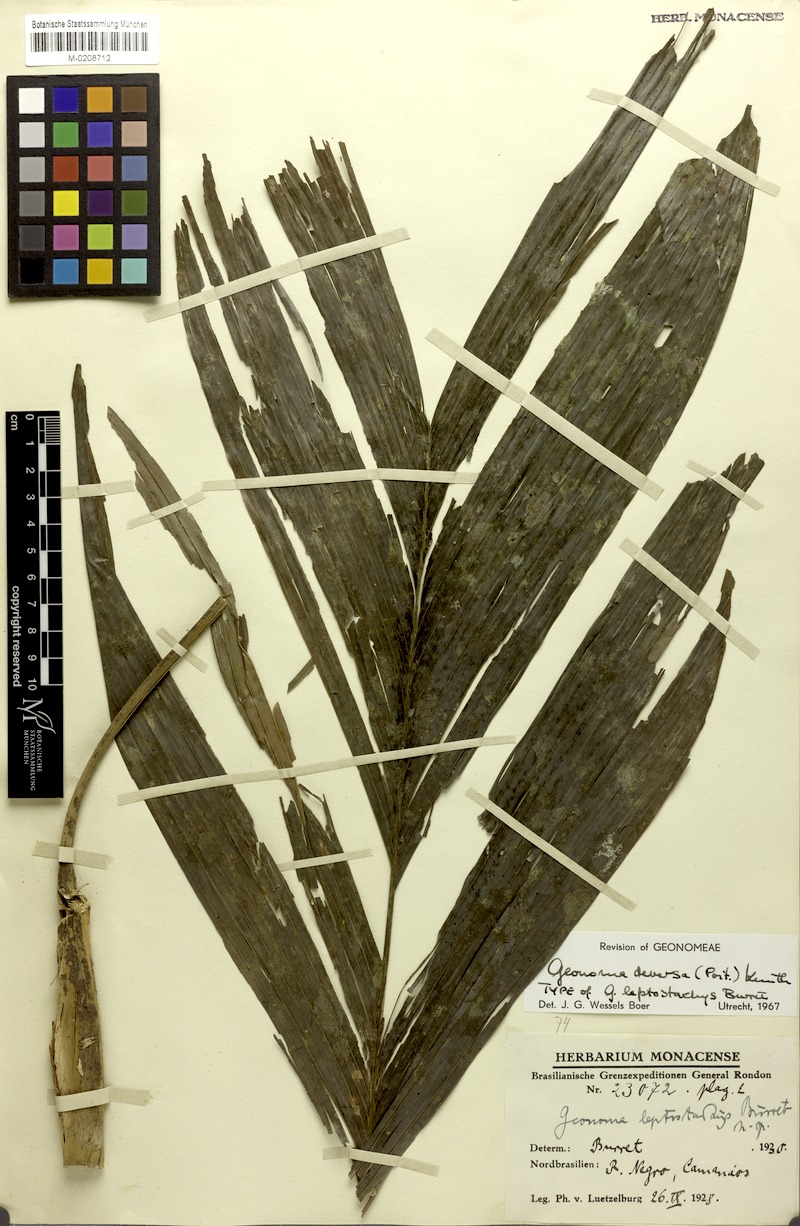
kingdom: Plantae
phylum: Tracheophyta
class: Liliopsida
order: Arecales
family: Arecaceae
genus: Geonoma
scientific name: Geonoma deversa
